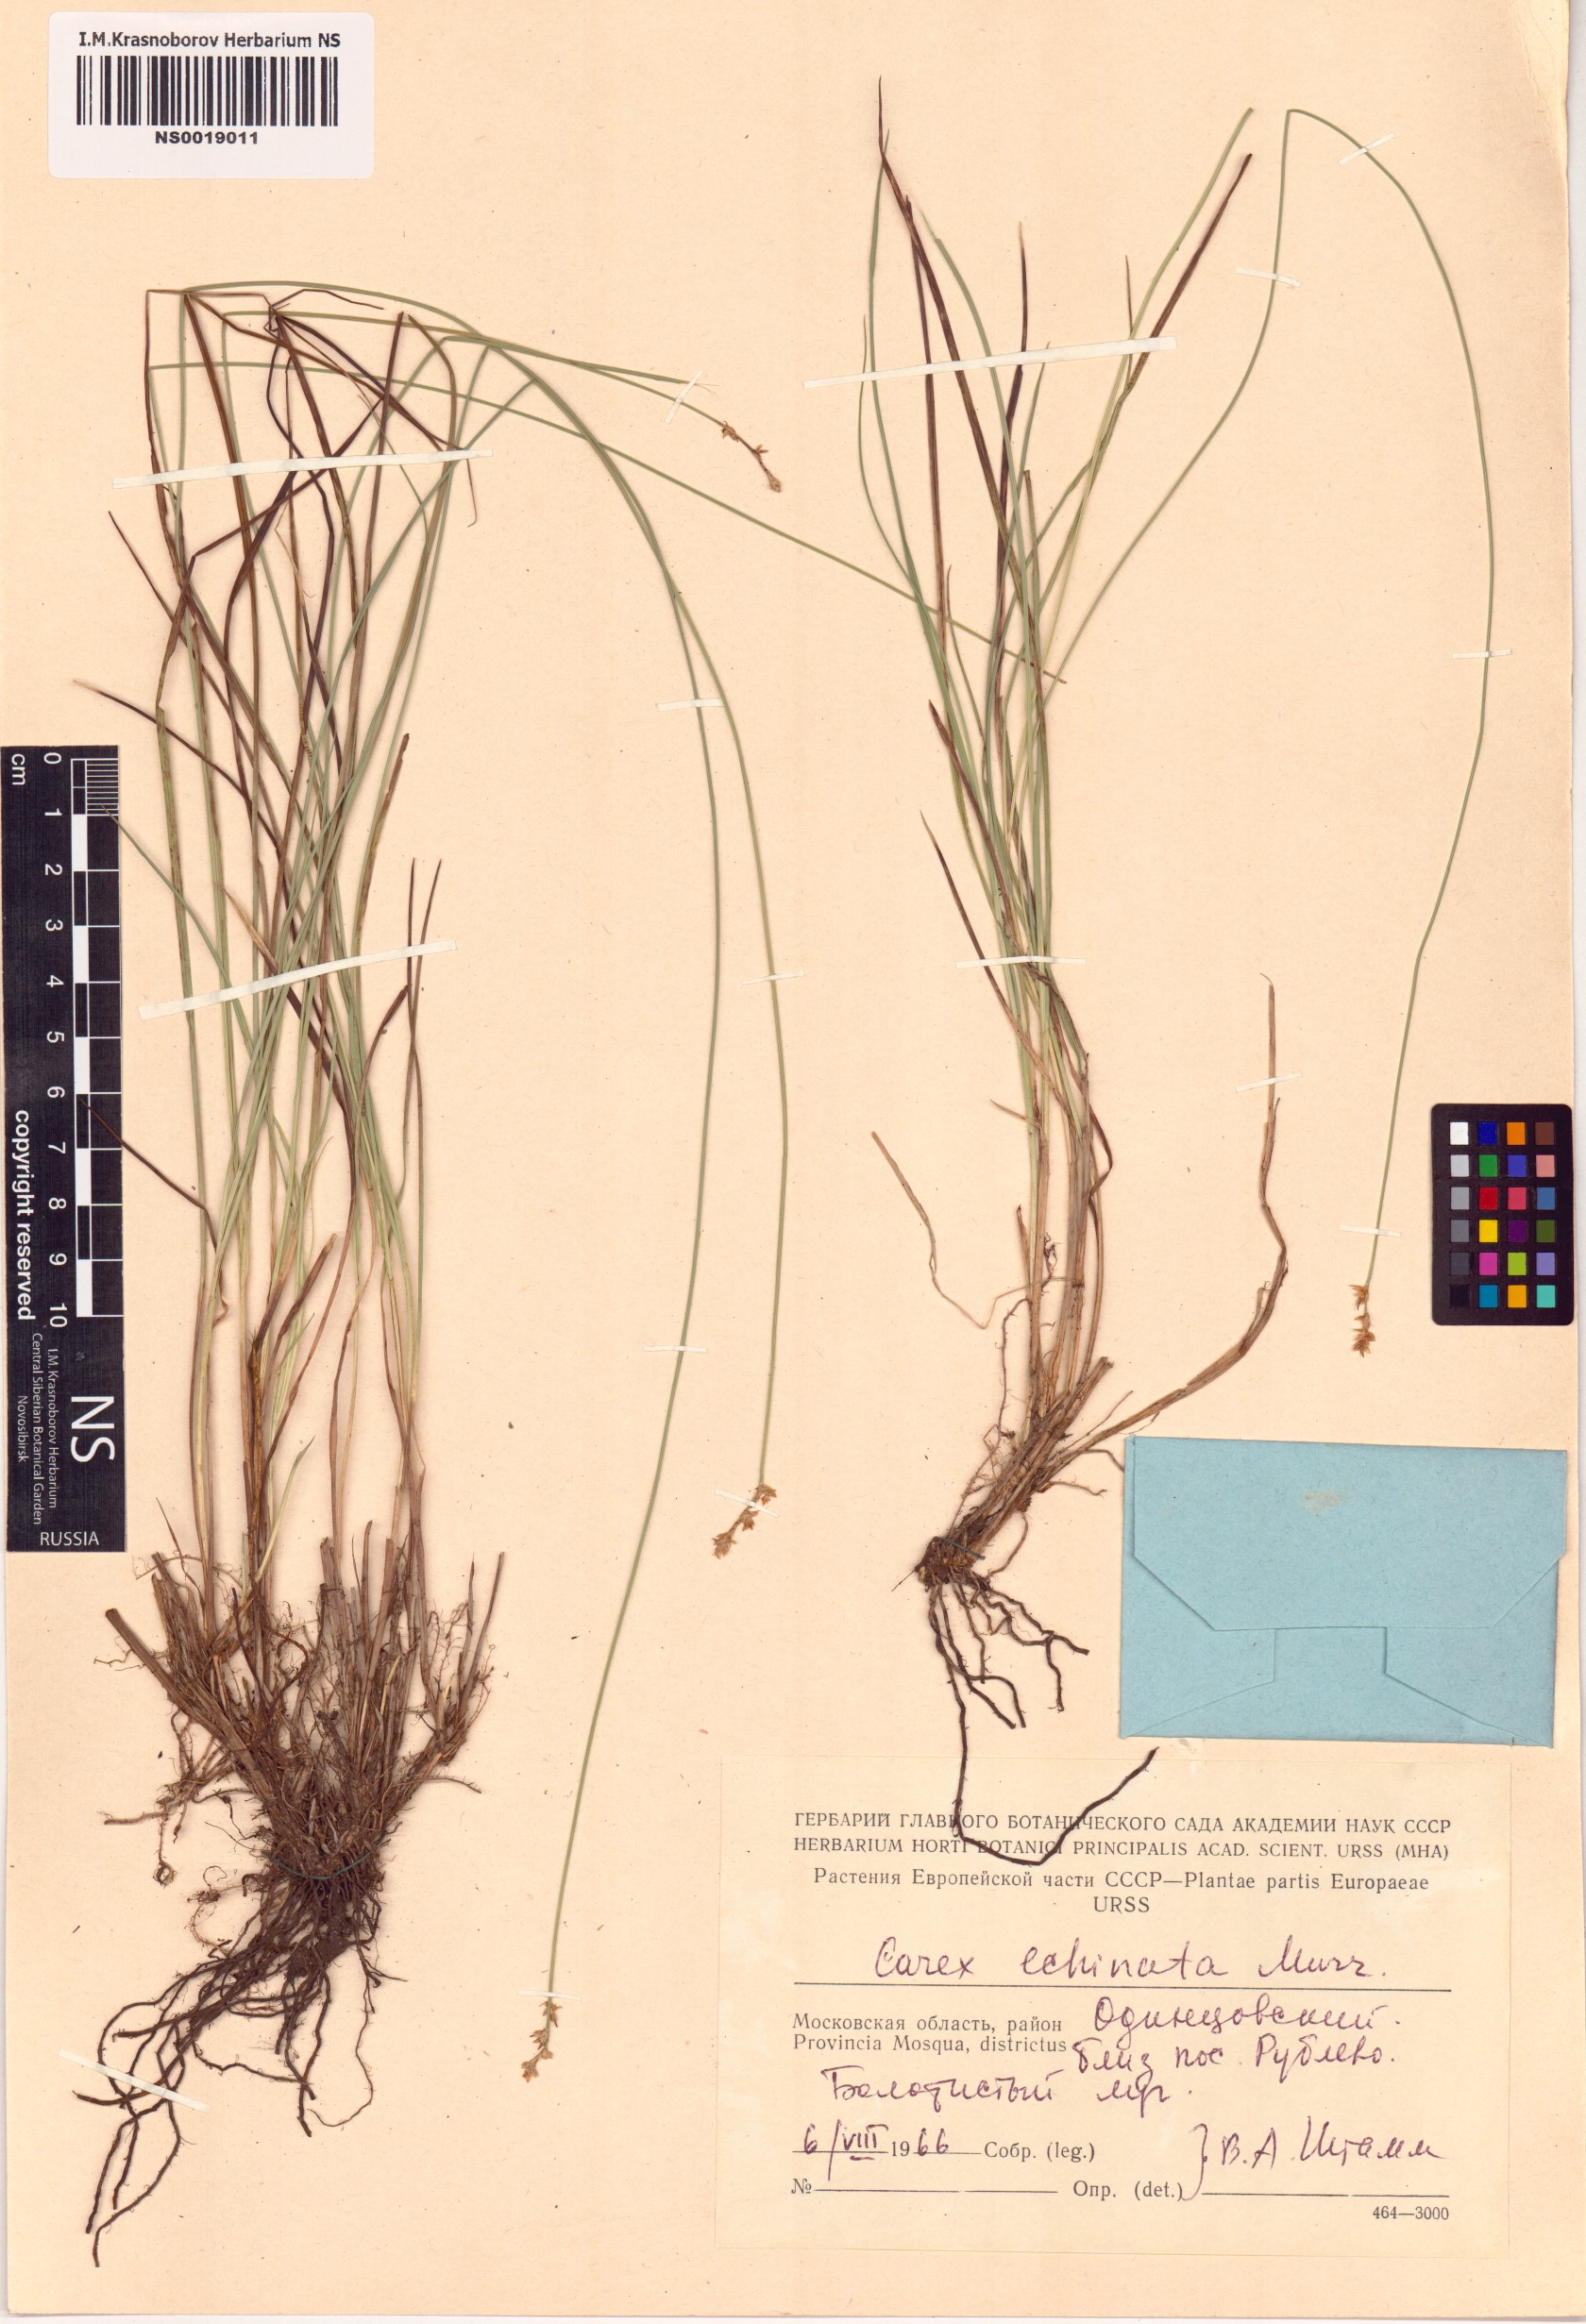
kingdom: Plantae
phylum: Tracheophyta
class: Liliopsida
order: Poales
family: Cyperaceae
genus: Carex
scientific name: Carex echinata
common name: Star sedge
